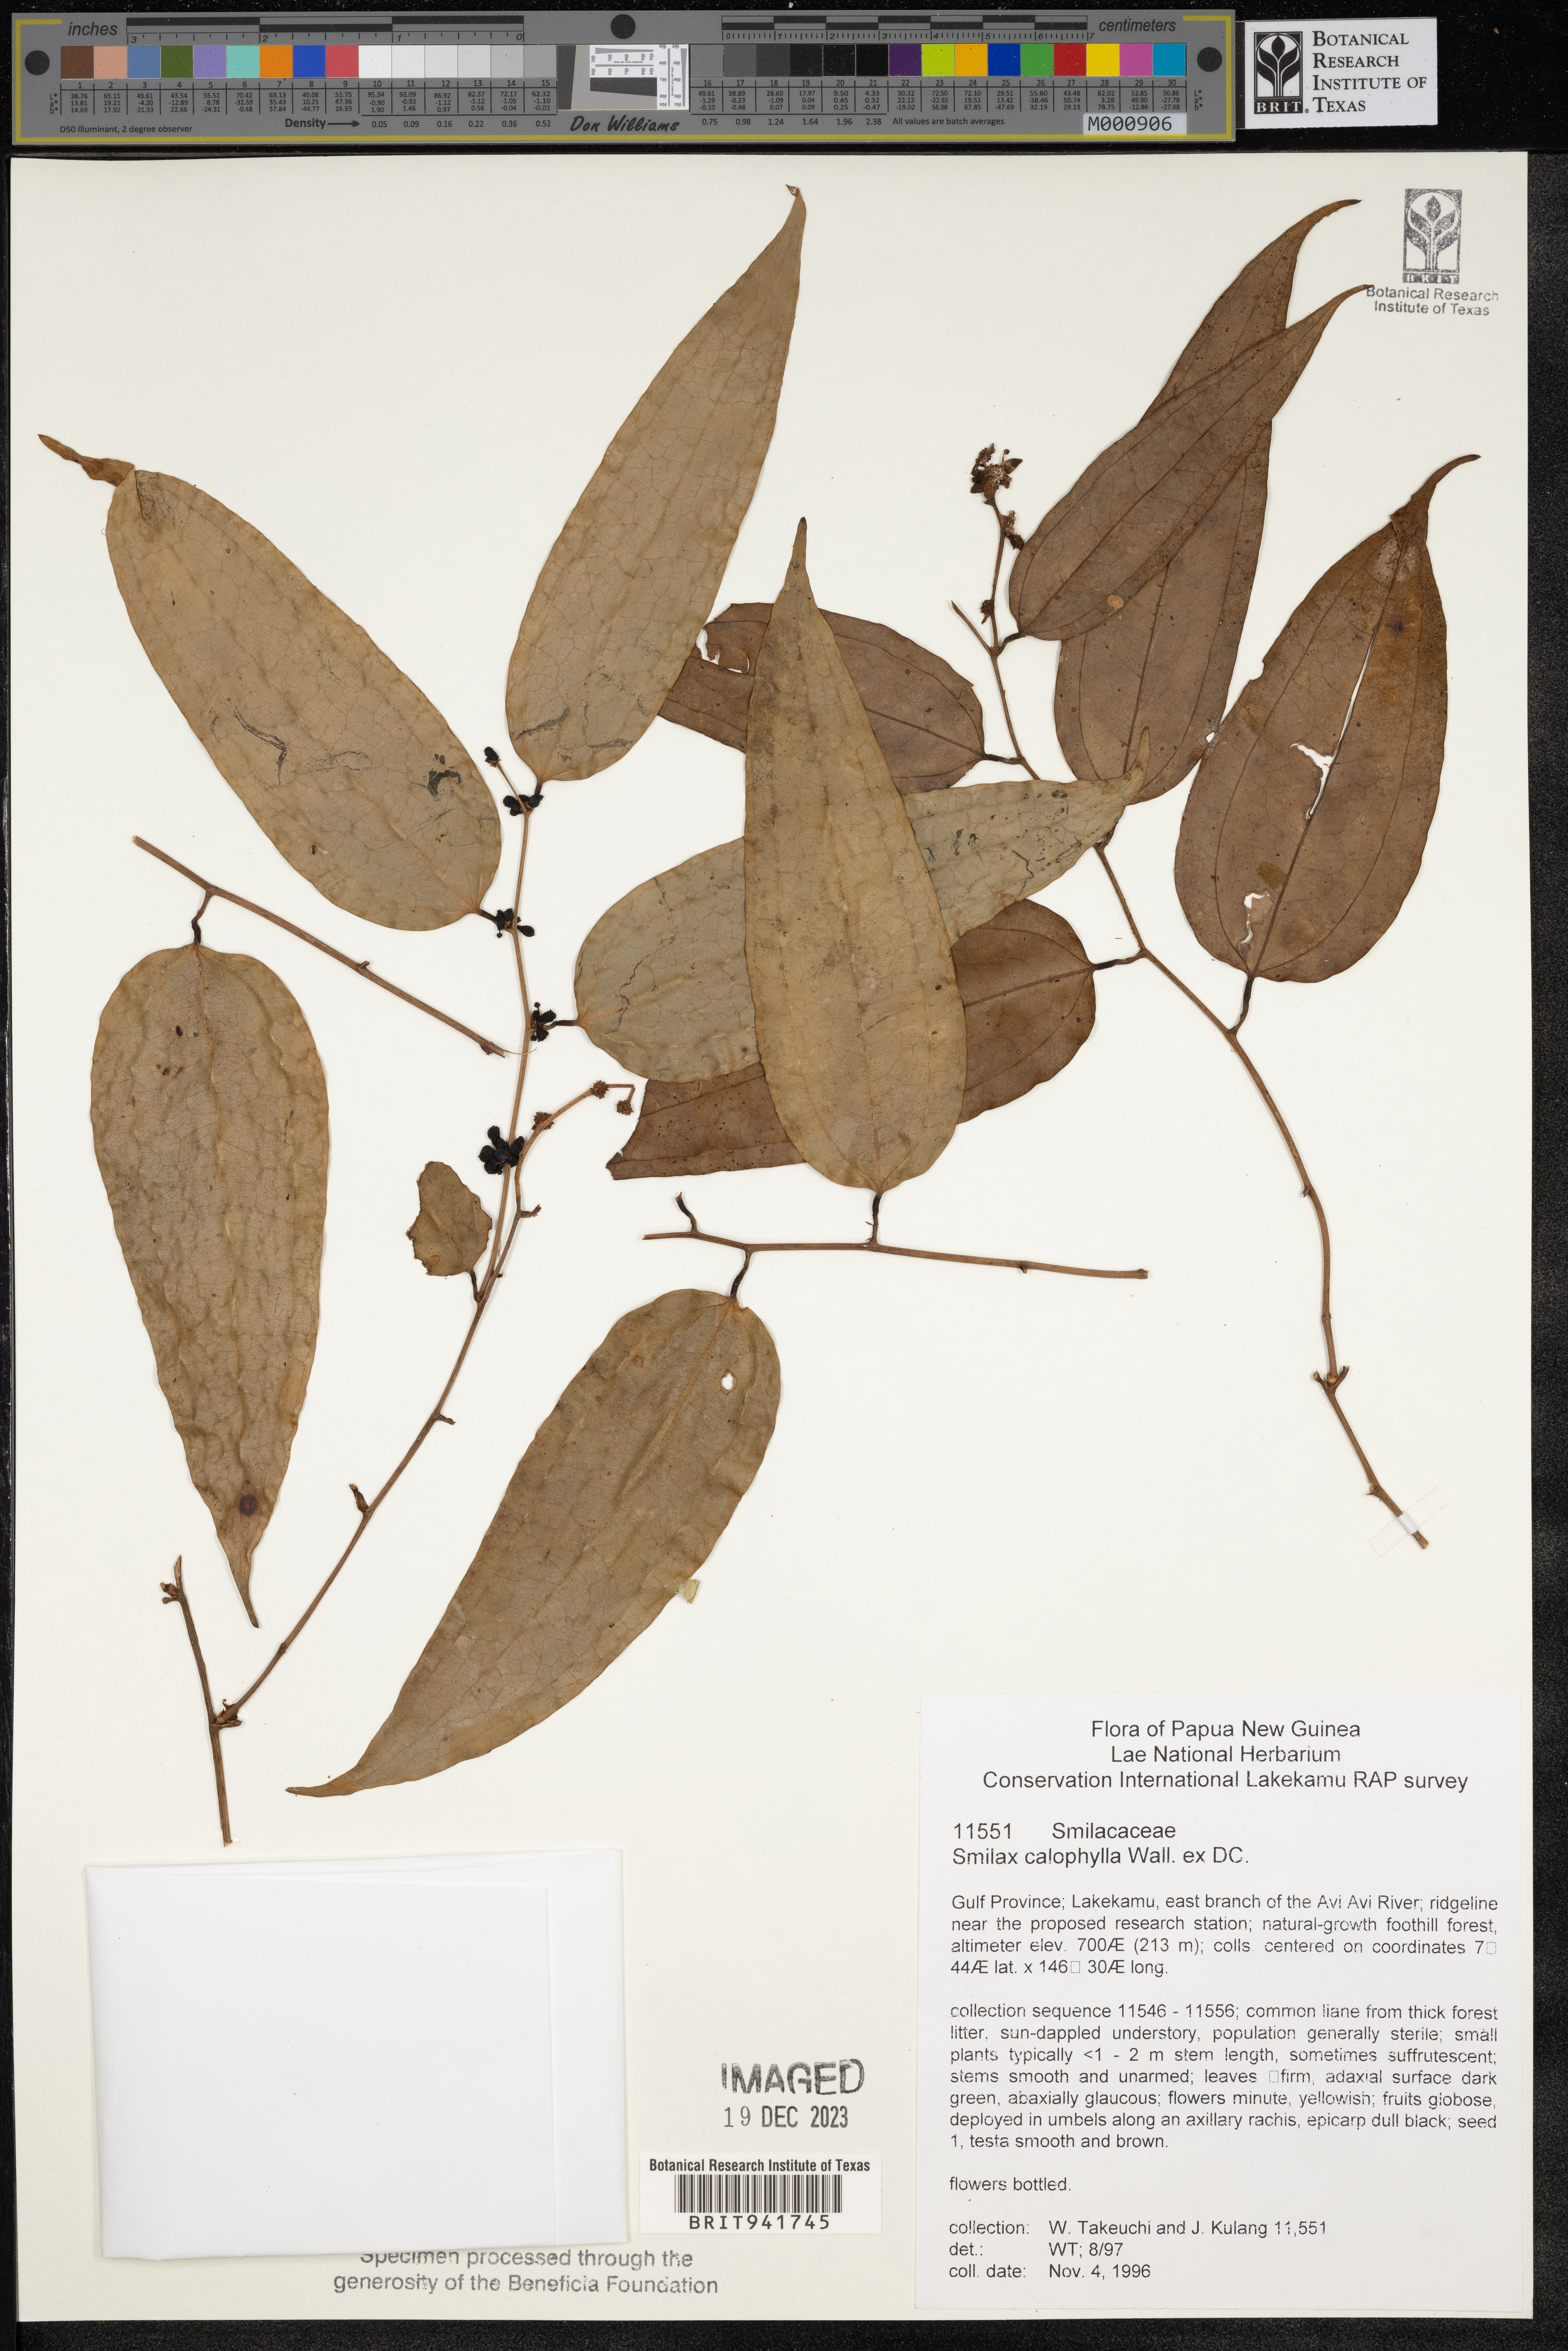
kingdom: Plantae
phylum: Tracheophyta
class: Liliopsida
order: Liliales
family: Smilacaceae
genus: Smilax
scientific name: Smilax
